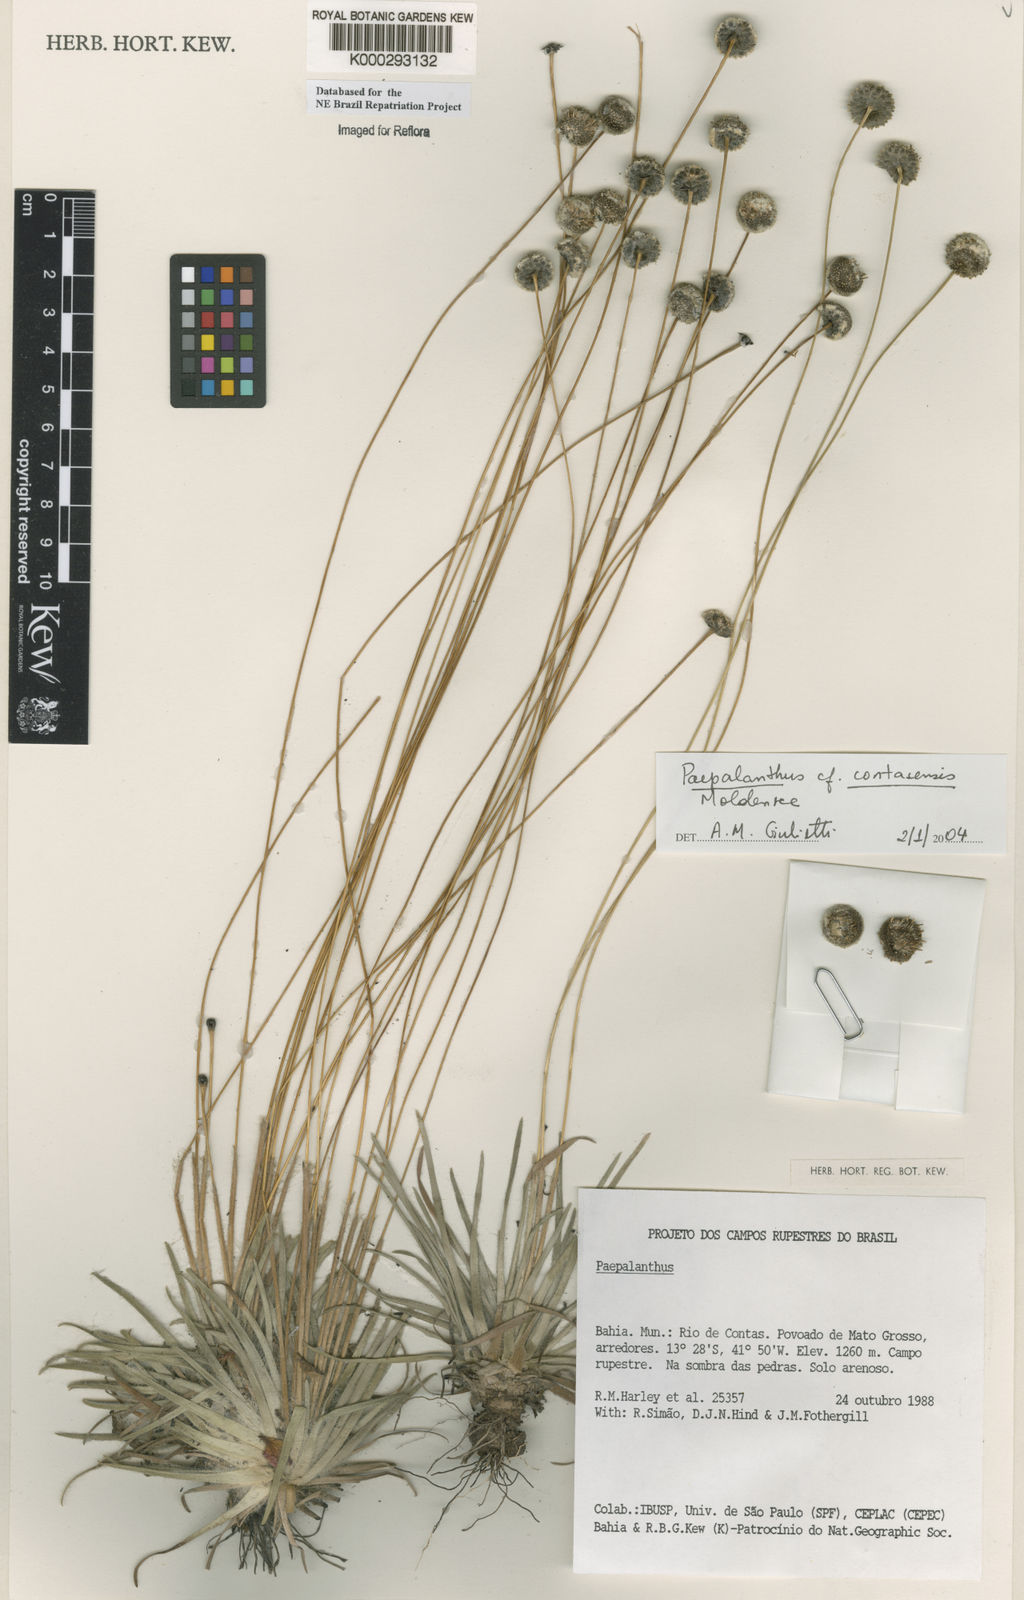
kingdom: Plantae
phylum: Tracheophyta
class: Liliopsida
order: Poales
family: Eriocaulaceae
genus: Paepalanthus
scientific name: Paepalanthus contasensis
